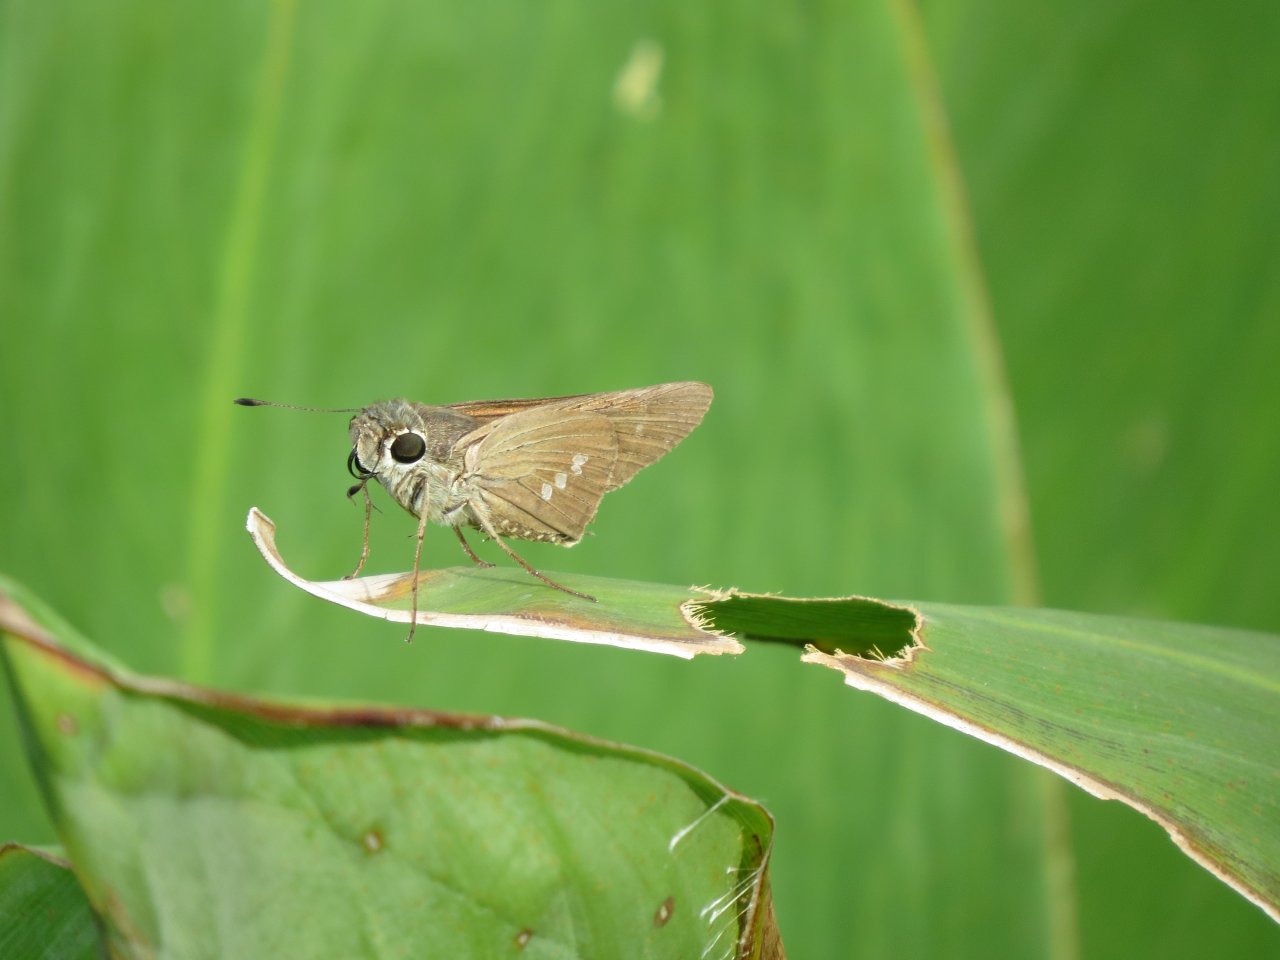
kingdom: Animalia
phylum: Arthropoda
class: Insecta
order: Lepidoptera
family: Hesperiidae
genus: Calpodes
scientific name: Calpodes ethlius
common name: Brazilian Skipper
